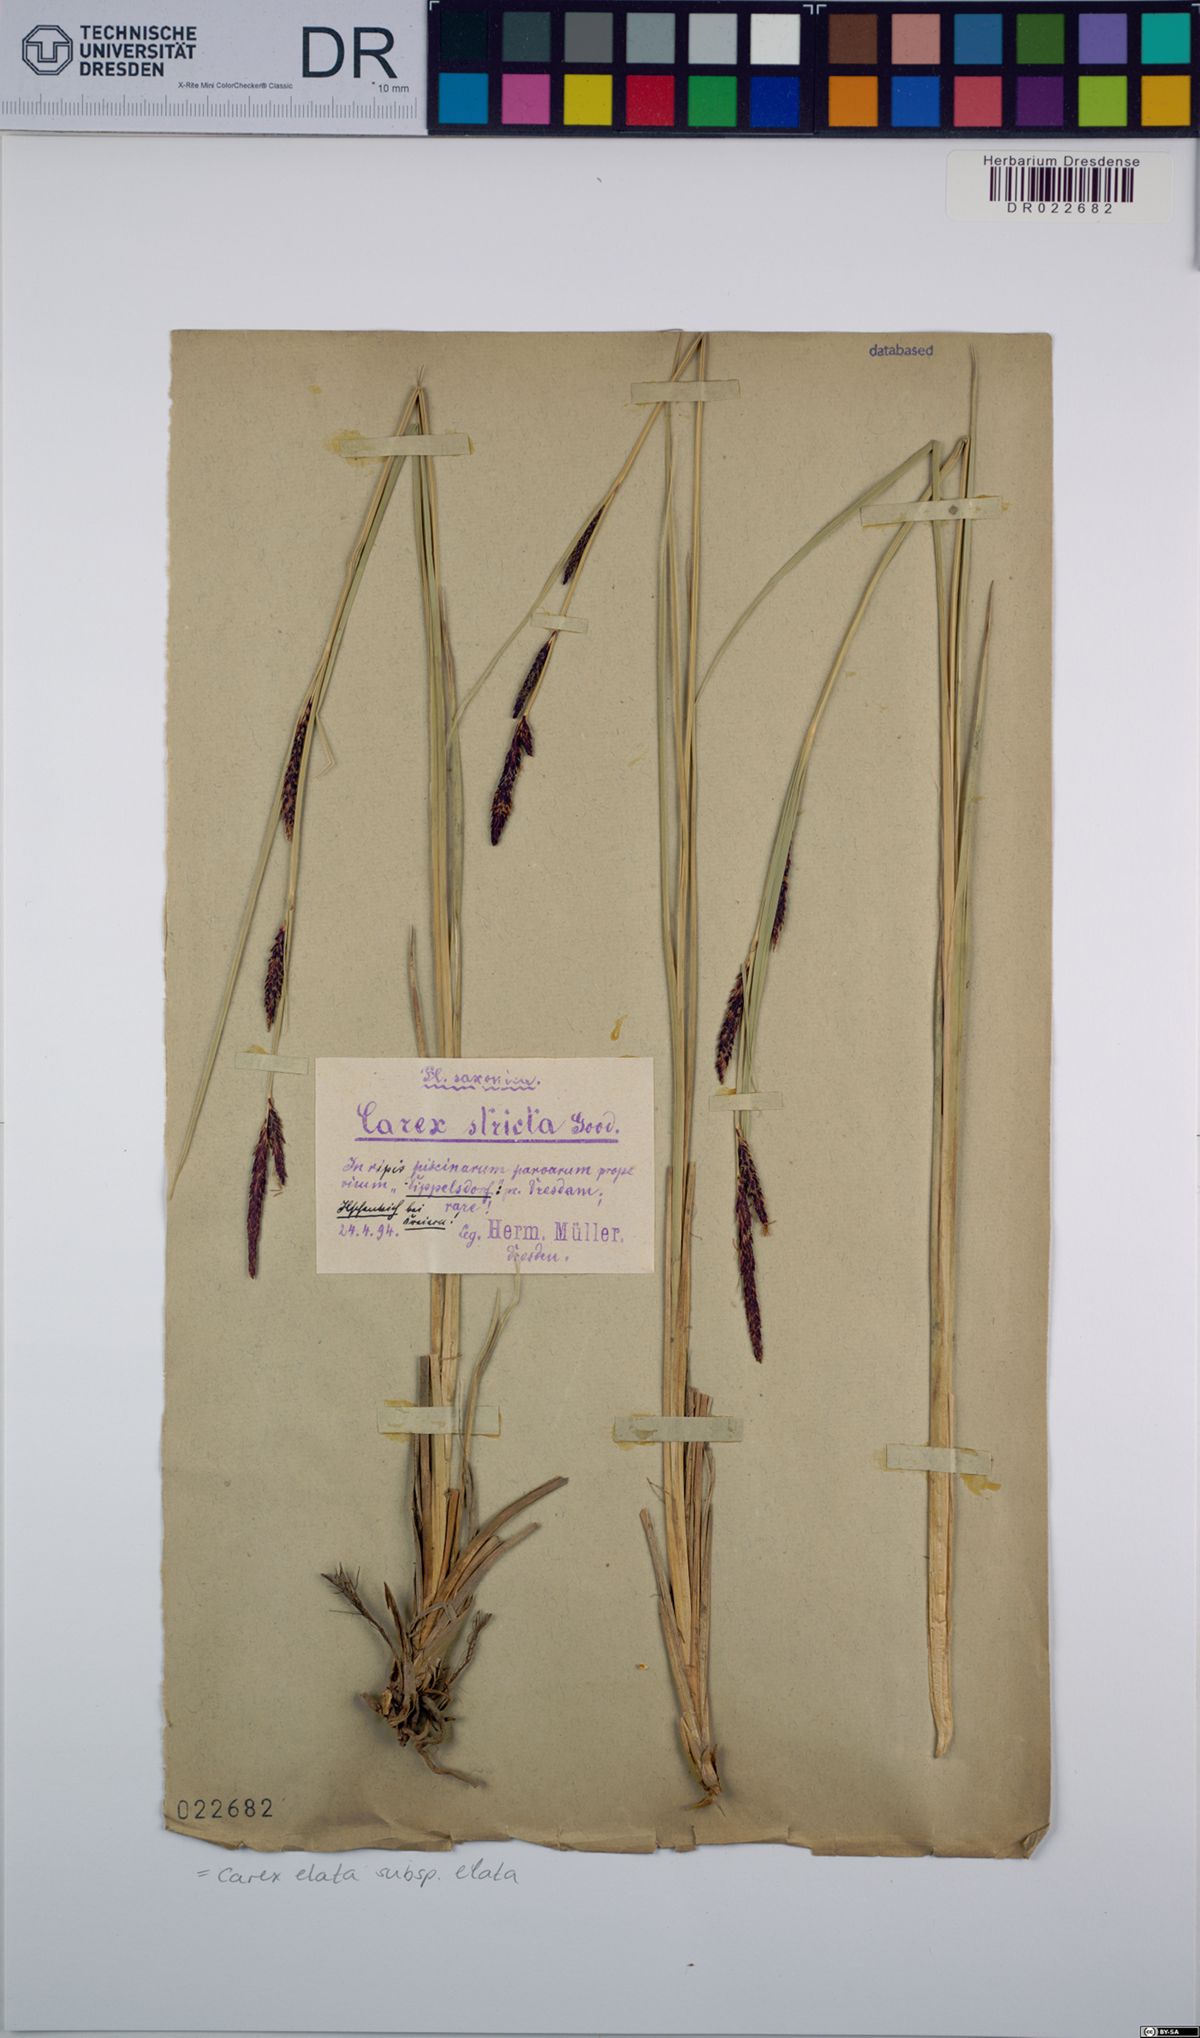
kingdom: Plantae
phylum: Tracheophyta
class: Liliopsida
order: Poales
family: Cyperaceae
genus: Carex
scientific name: Carex elata
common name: Tufted sedge
